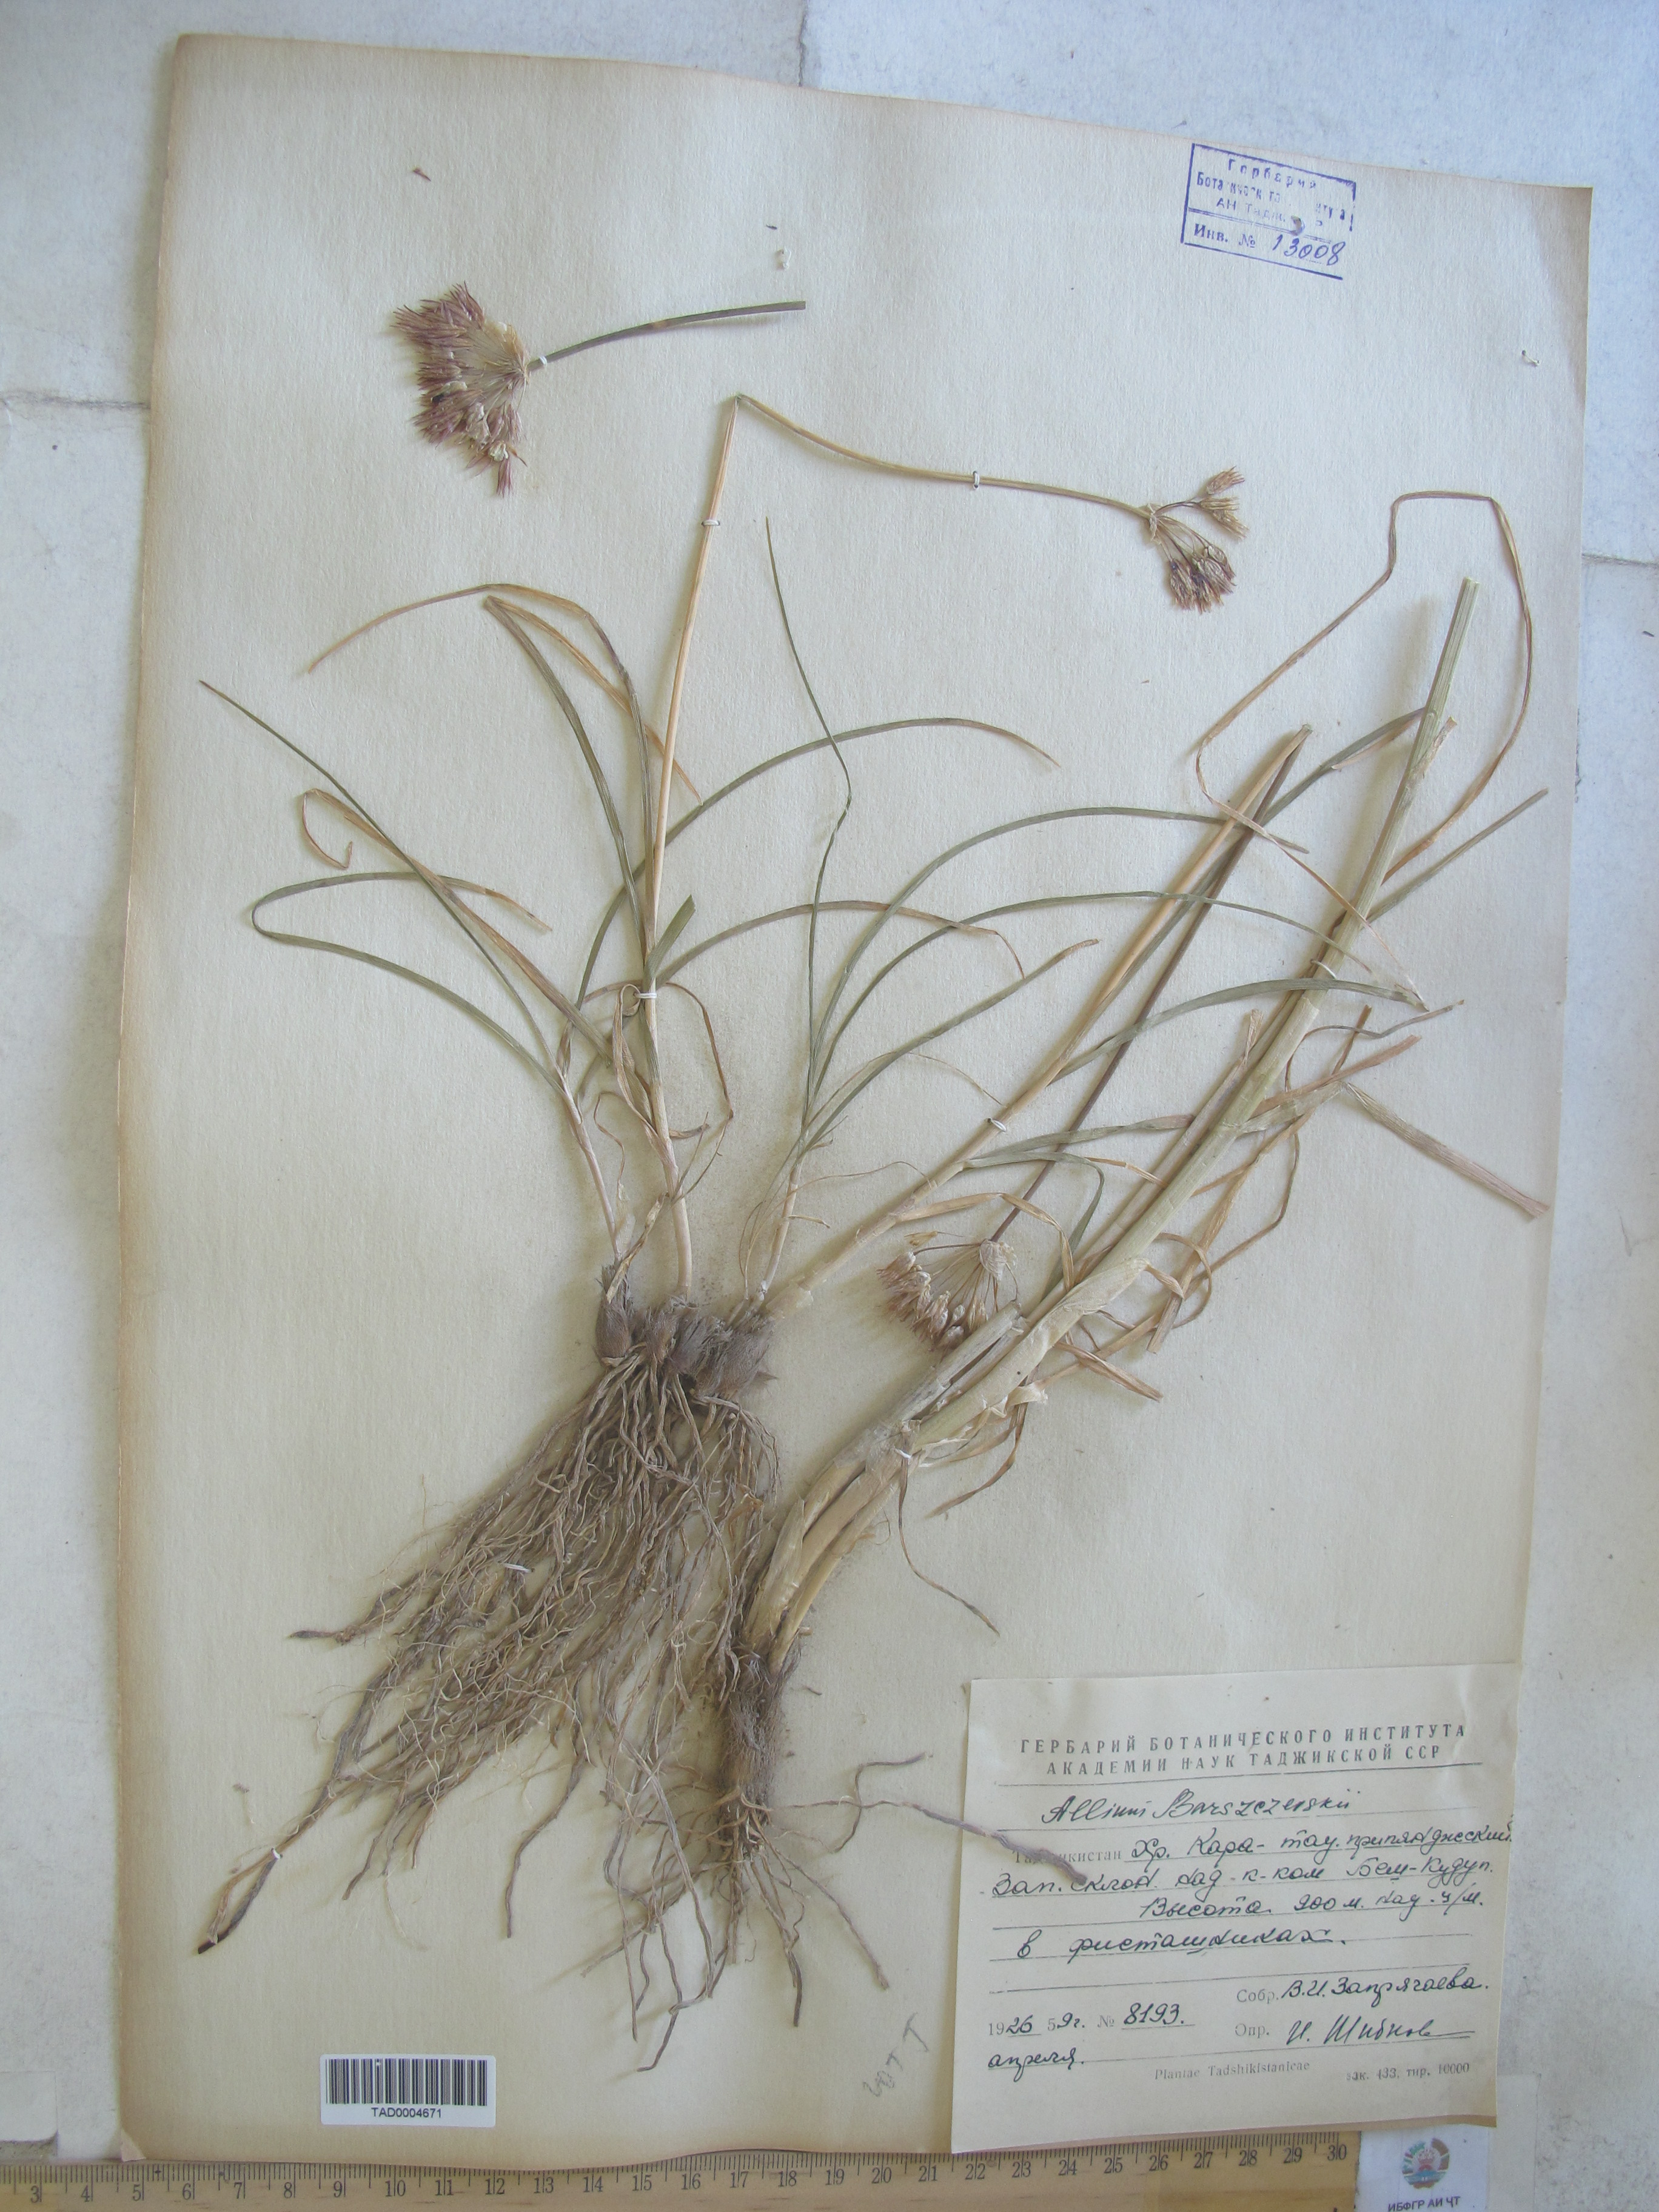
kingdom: Plantae
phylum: Tracheophyta
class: Liliopsida
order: Asparagales
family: Amaryllidaceae
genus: Allium
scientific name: Allium barsczewskii
